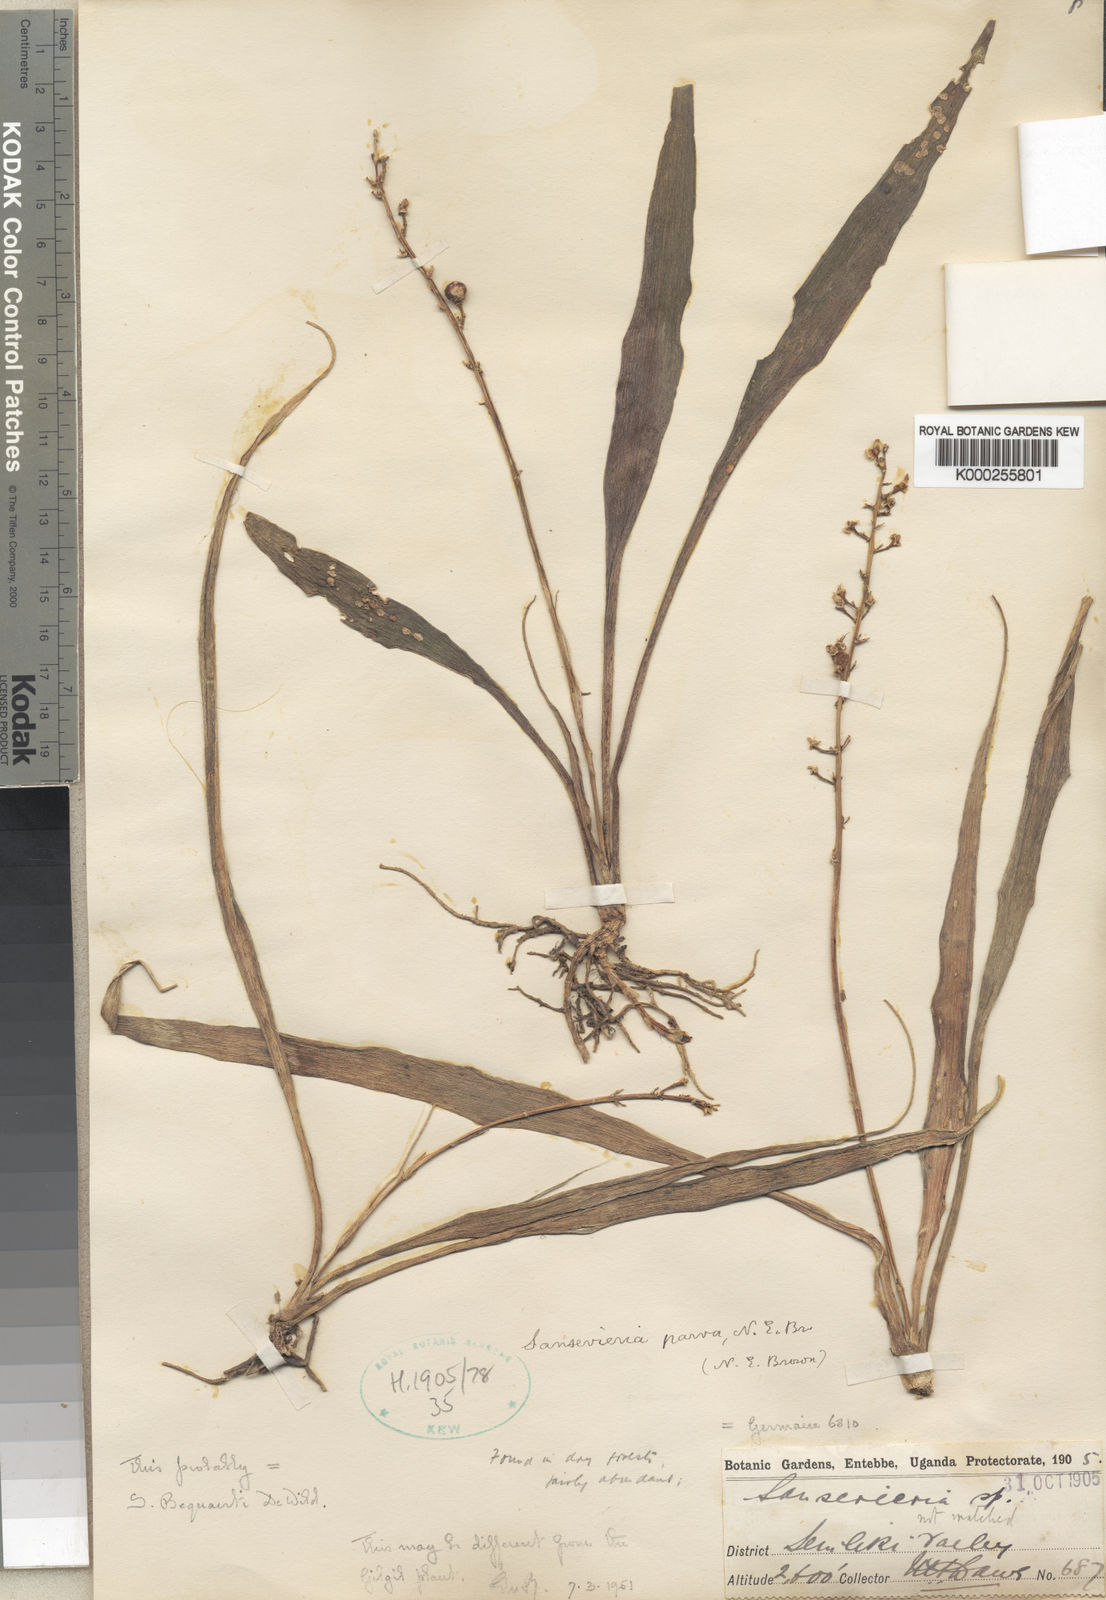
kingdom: Plantae
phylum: Tracheophyta
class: Liliopsida
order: Asparagales
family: Asparagaceae
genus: Dracaena
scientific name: Dracaena parva
